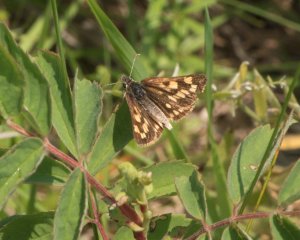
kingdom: Animalia
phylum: Arthropoda
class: Insecta
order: Lepidoptera
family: Hesperiidae
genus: Carterocephalus
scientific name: Carterocephalus palaemon
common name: Chequered Skipper
